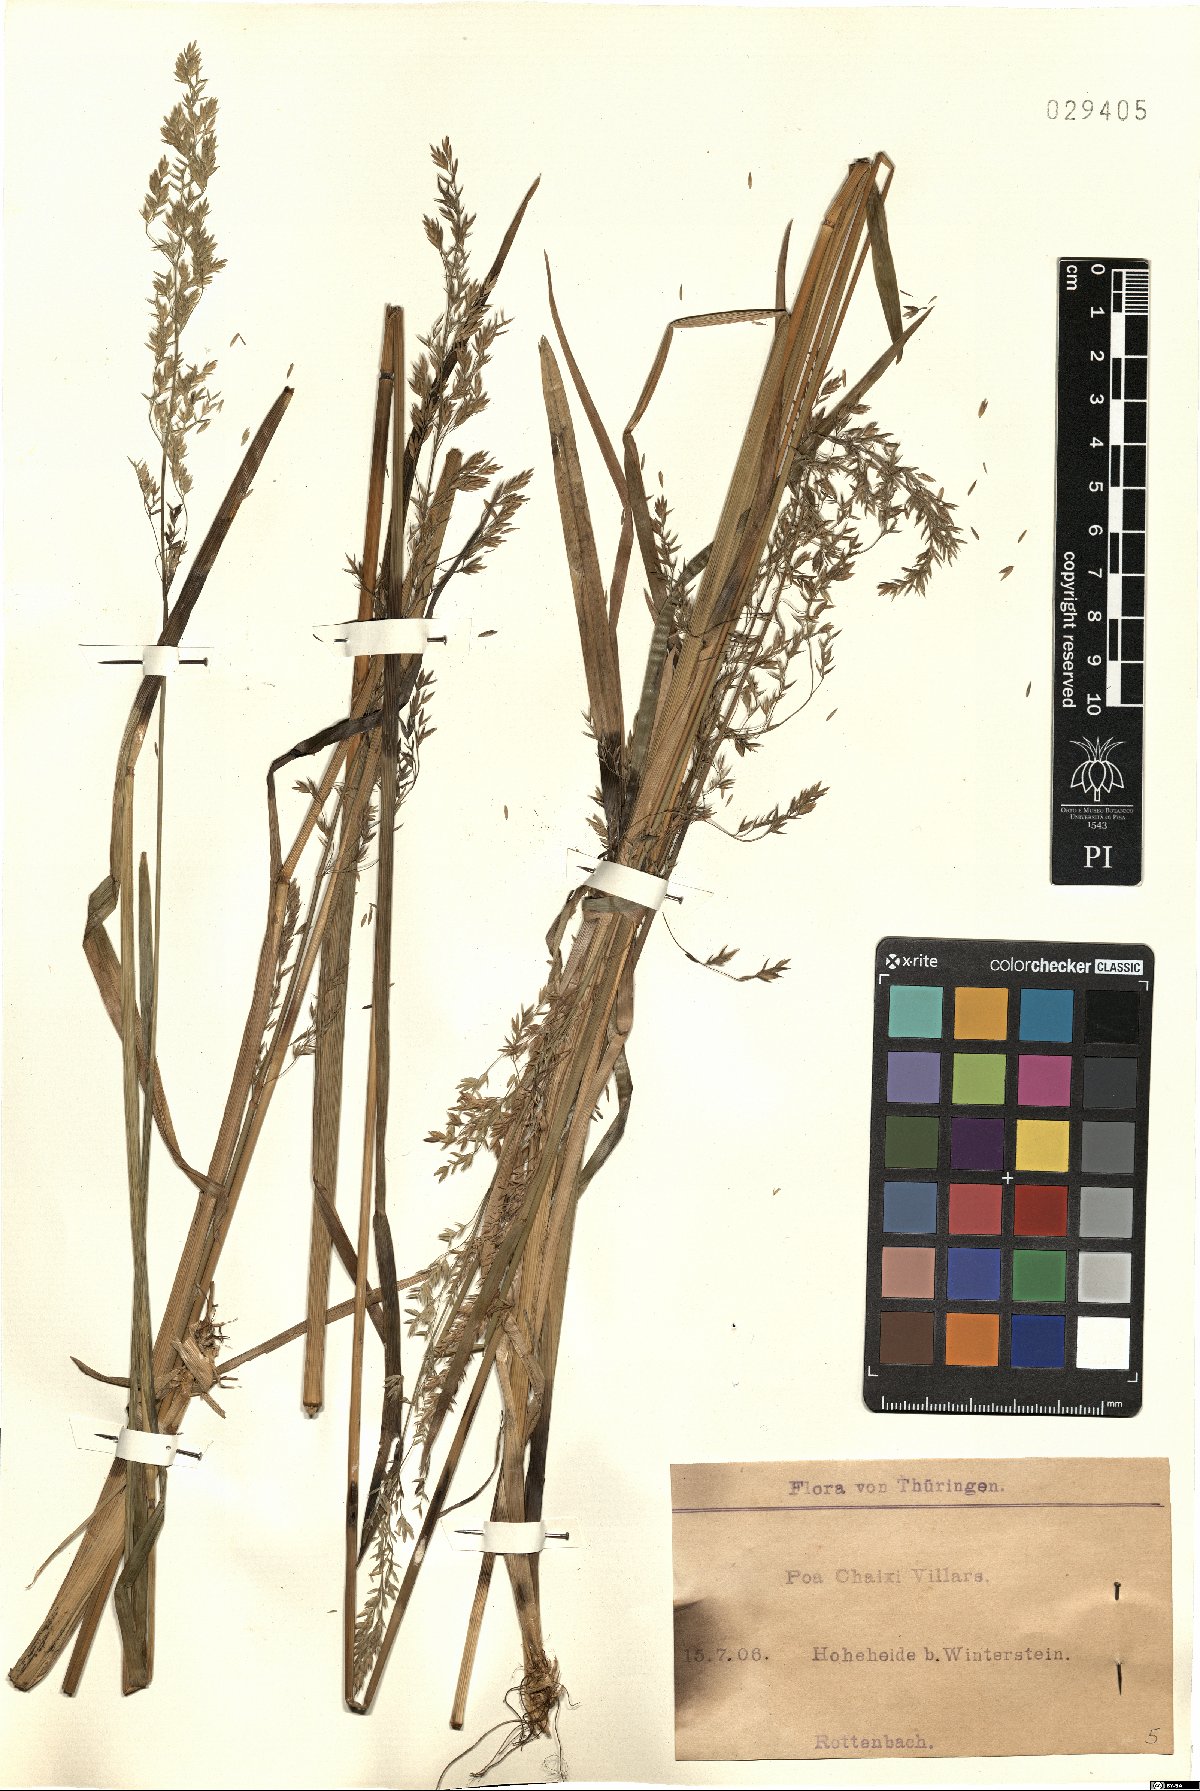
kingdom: Plantae
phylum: Tracheophyta
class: Liliopsida
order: Poales
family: Poaceae
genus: Poa
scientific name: Poa chaixii
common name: Broad-leaved meadow-grass
